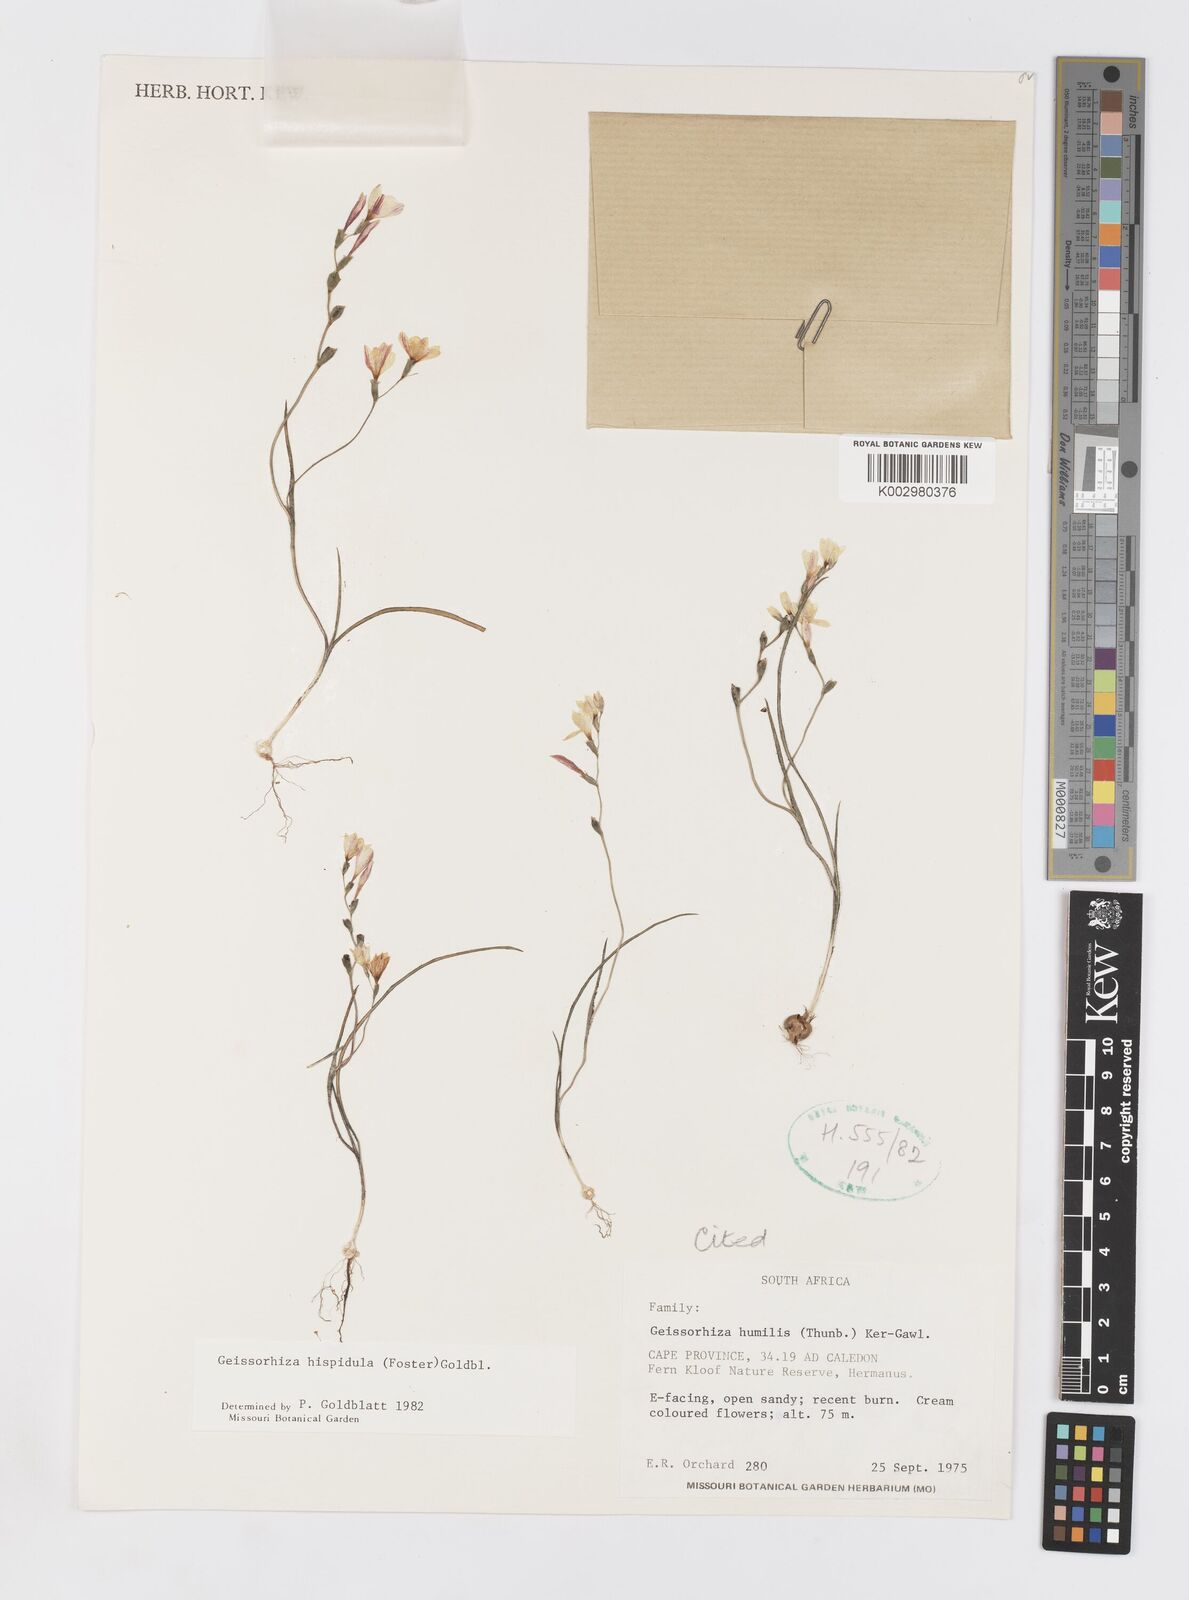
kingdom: Plantae
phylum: Tracheophyta
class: Liliopsida
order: Asparagales
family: Iridaceae
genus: Geissorhiza
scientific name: Geissorhiza hispidula
